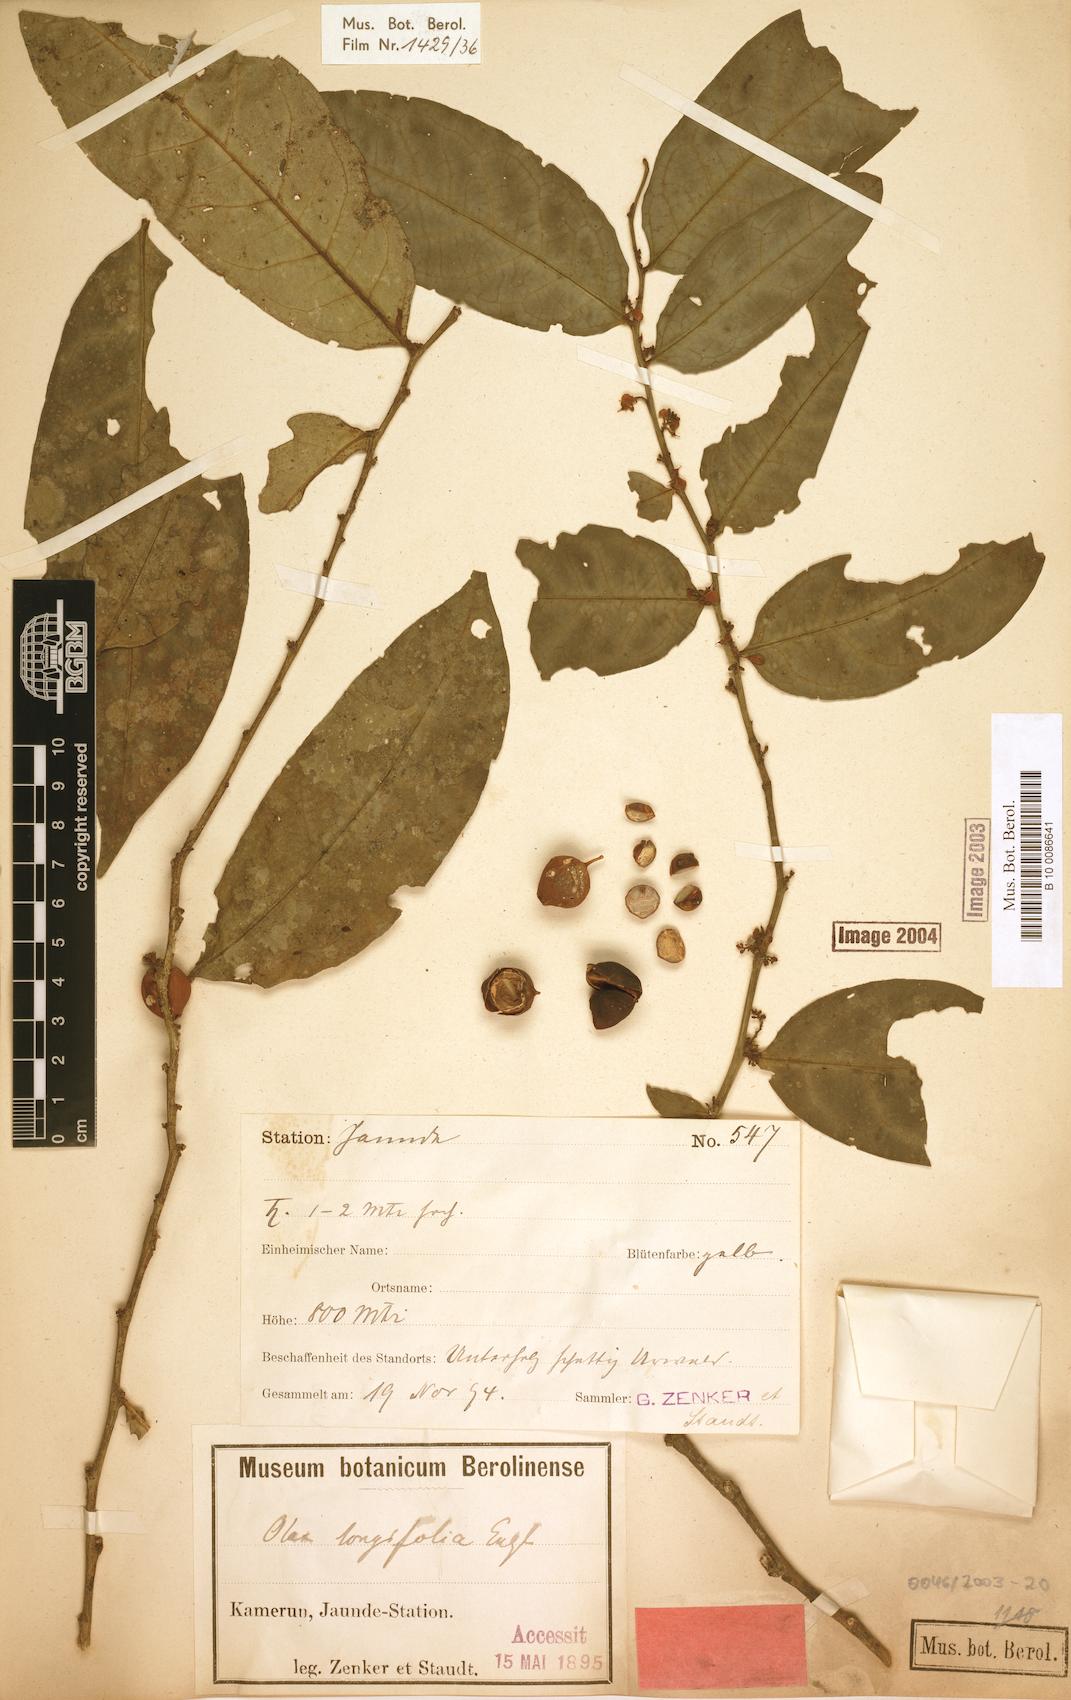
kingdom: Plantae
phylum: Tracheophyta
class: Magnoliopsida
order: Santalales
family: Olacaceae
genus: Olax
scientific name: Olax latifolia
